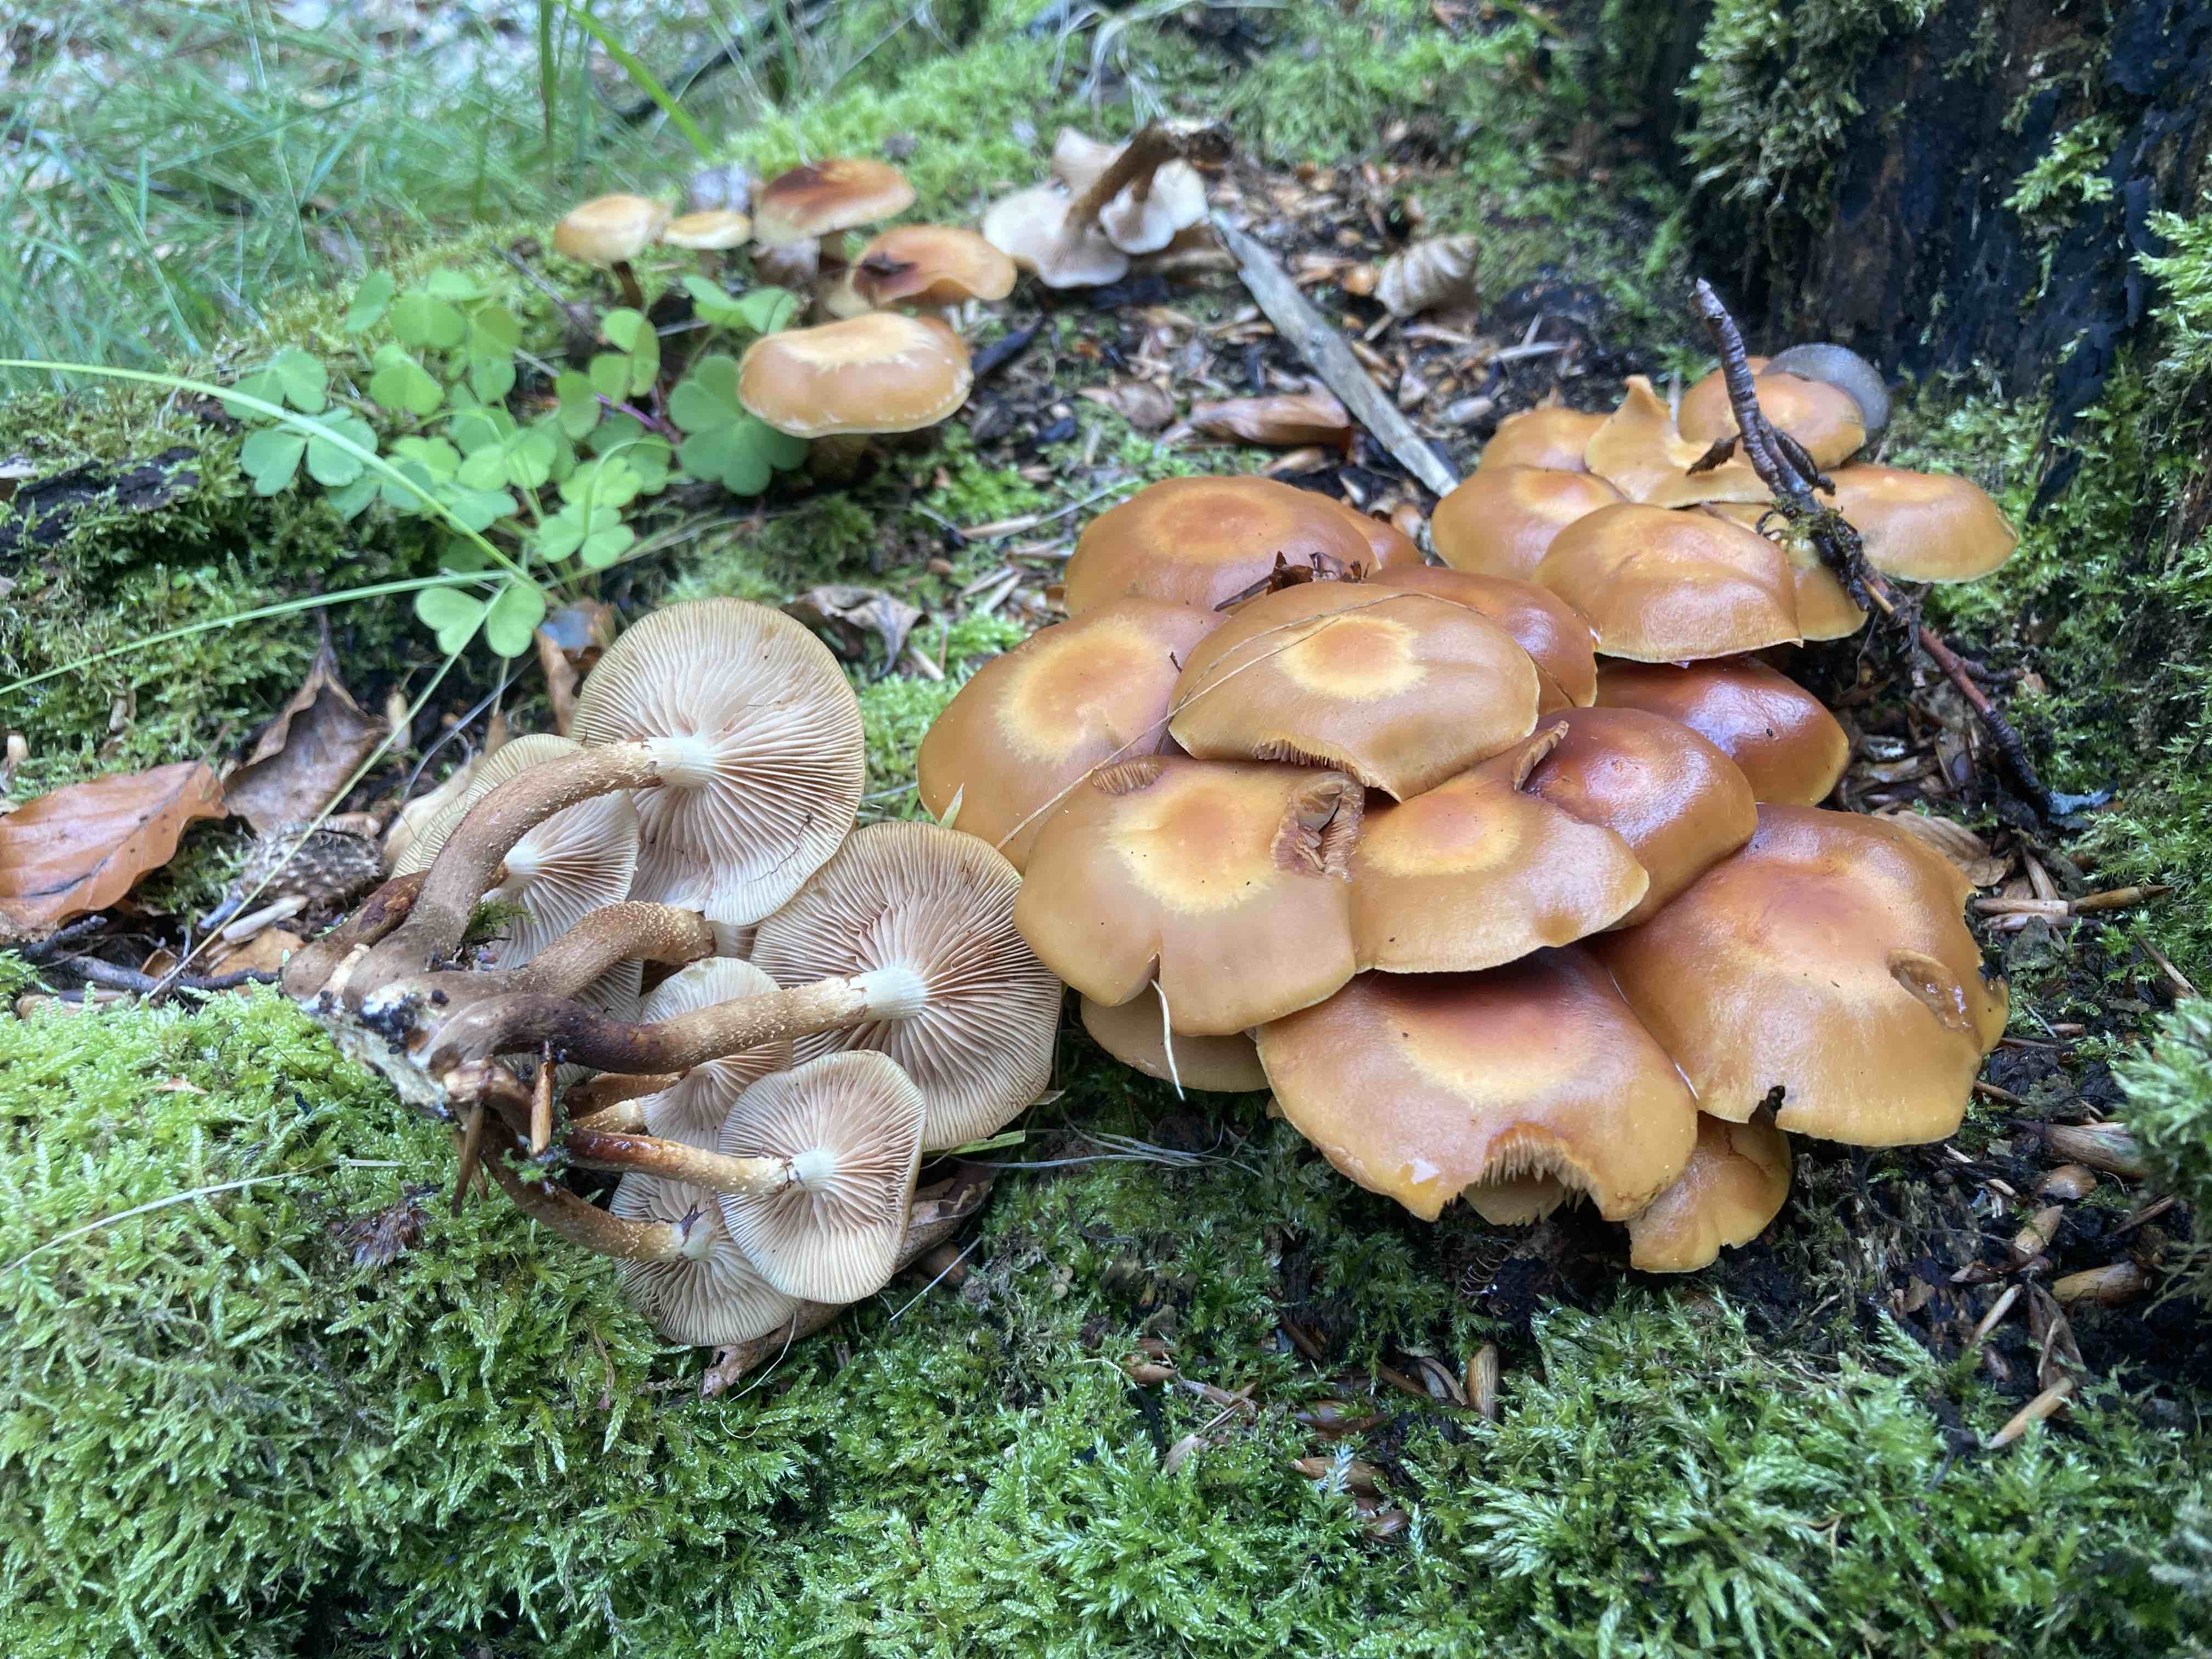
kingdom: Fungi
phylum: Basidiomycota
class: Agaricomycetes
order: Agaricales
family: Strophariaceae
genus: Kuehneromyces
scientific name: Kuehneromyces mutabilis
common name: foranderlig skælhat
